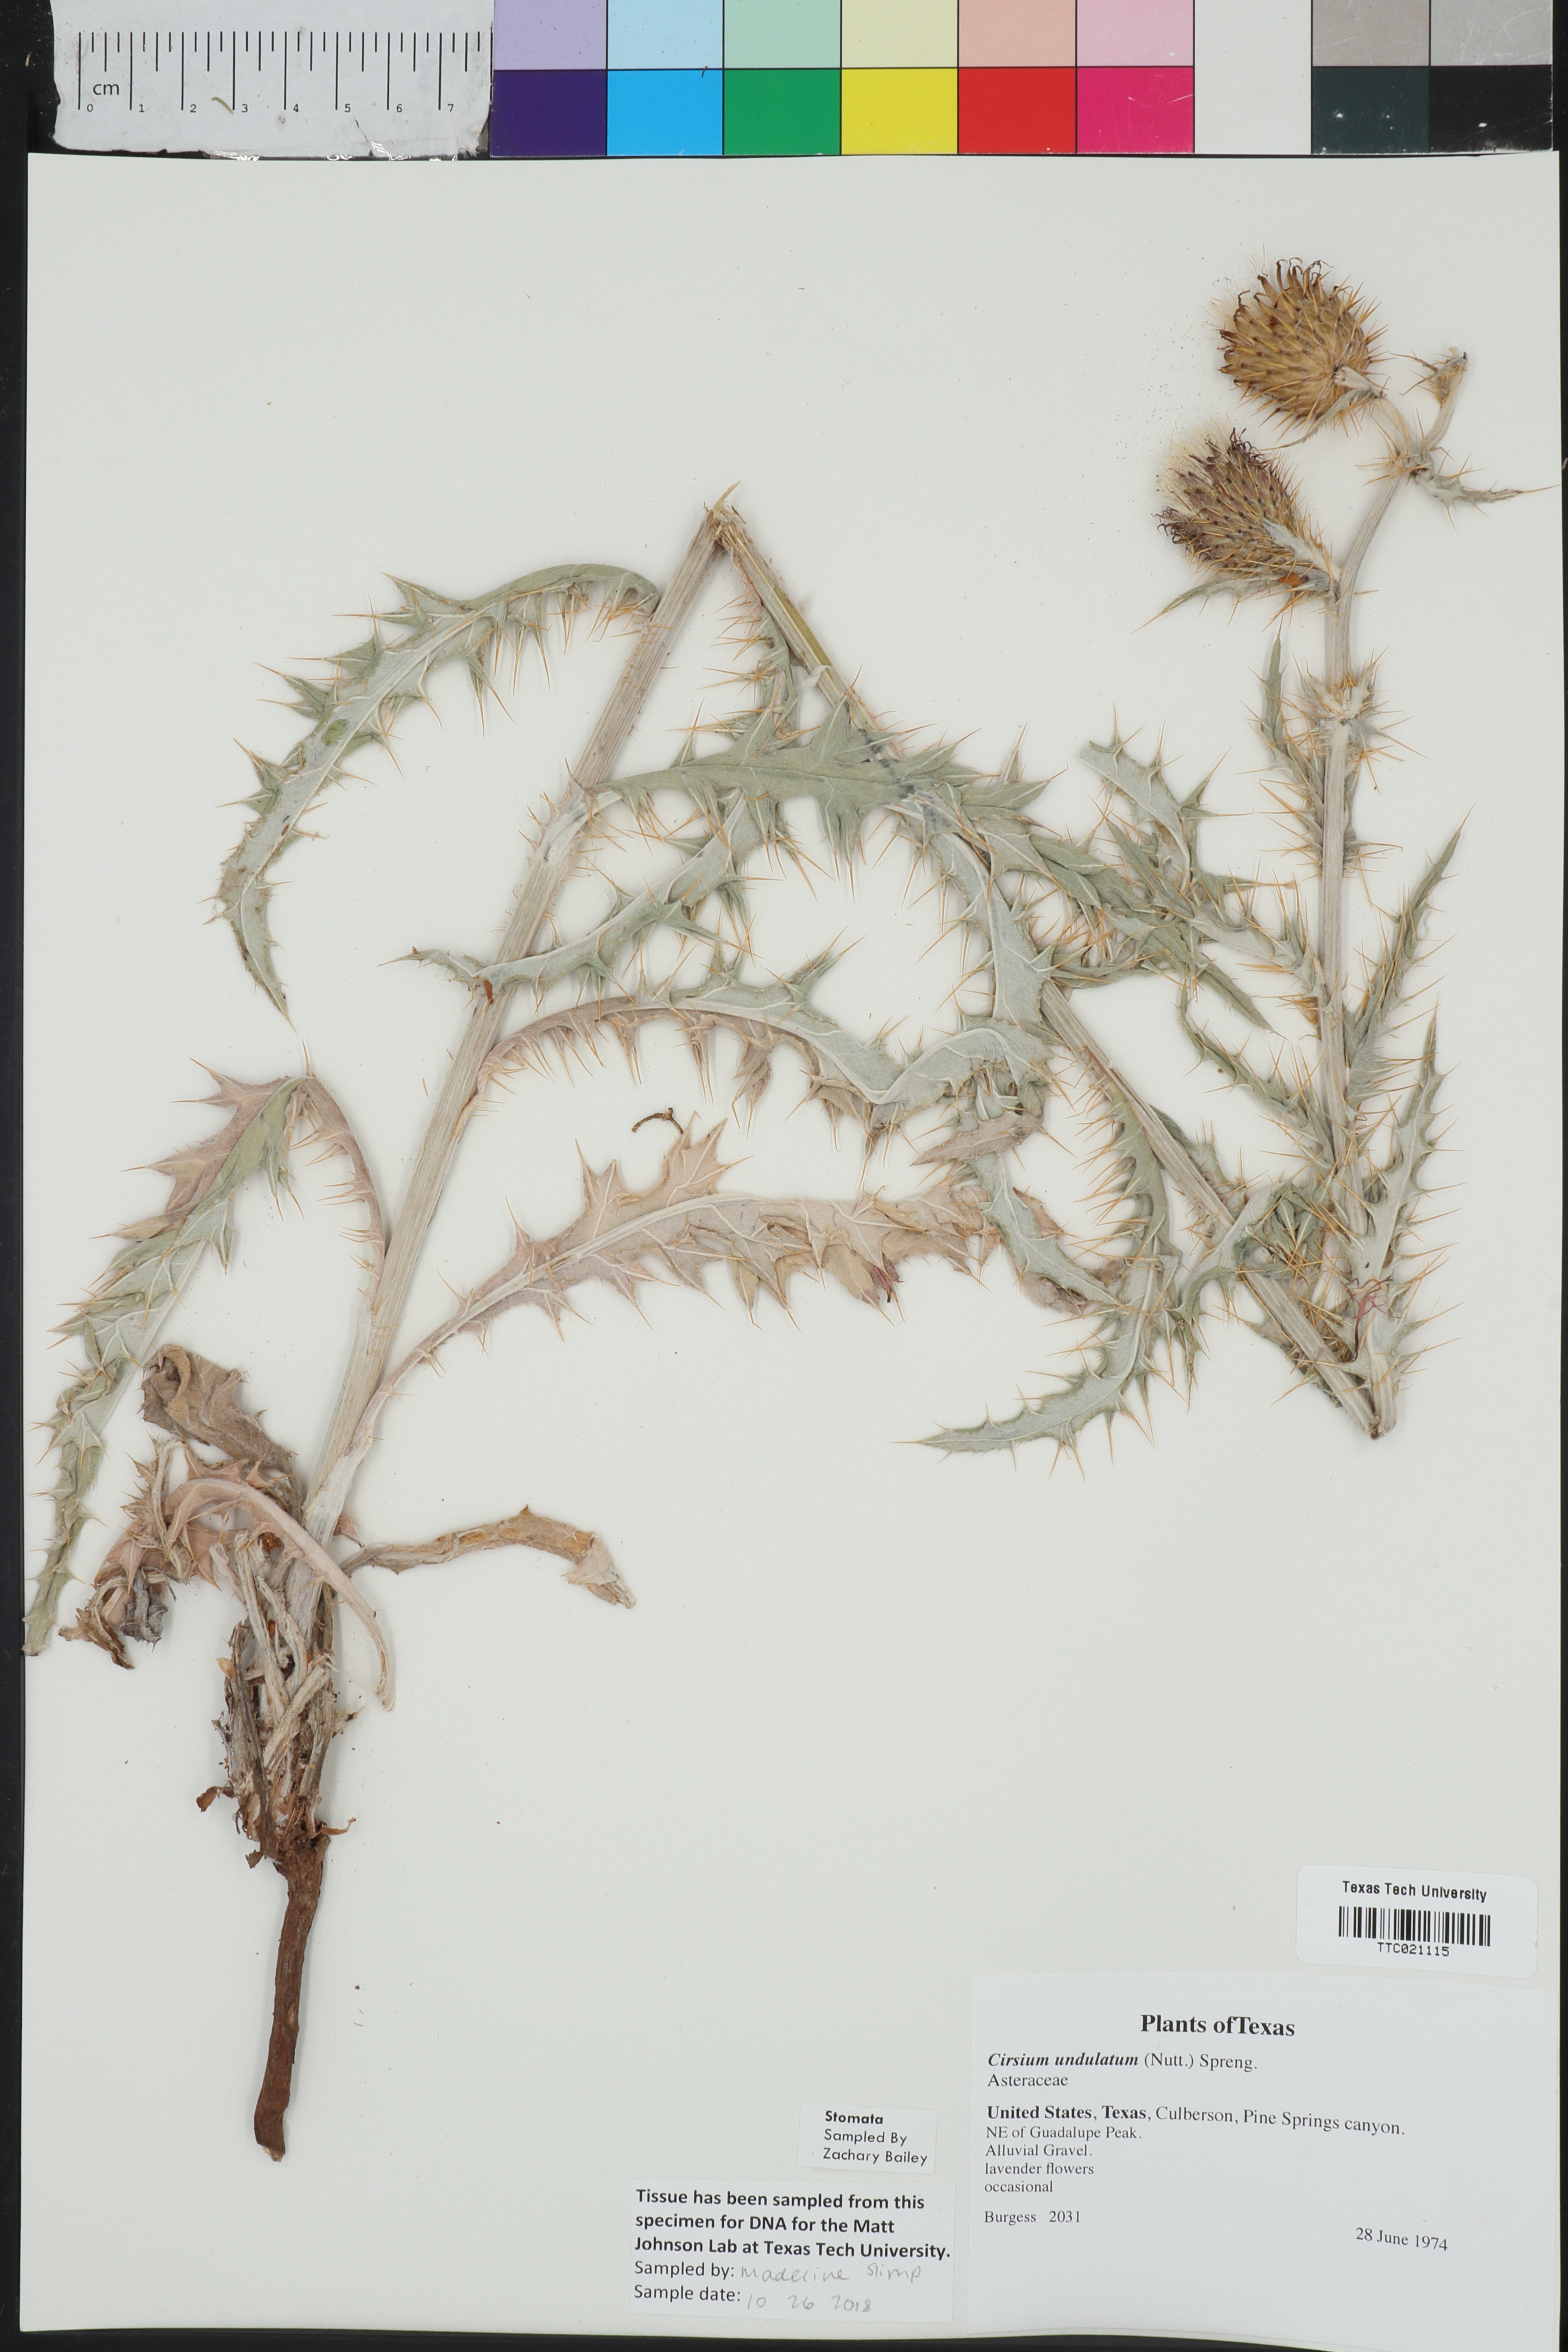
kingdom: Plantae
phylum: Tracheophyta
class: Magnoliopsida
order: Asterales
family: Asteraceae
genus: Cirsium
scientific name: Cirsium undulatum
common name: Pasture thistle
